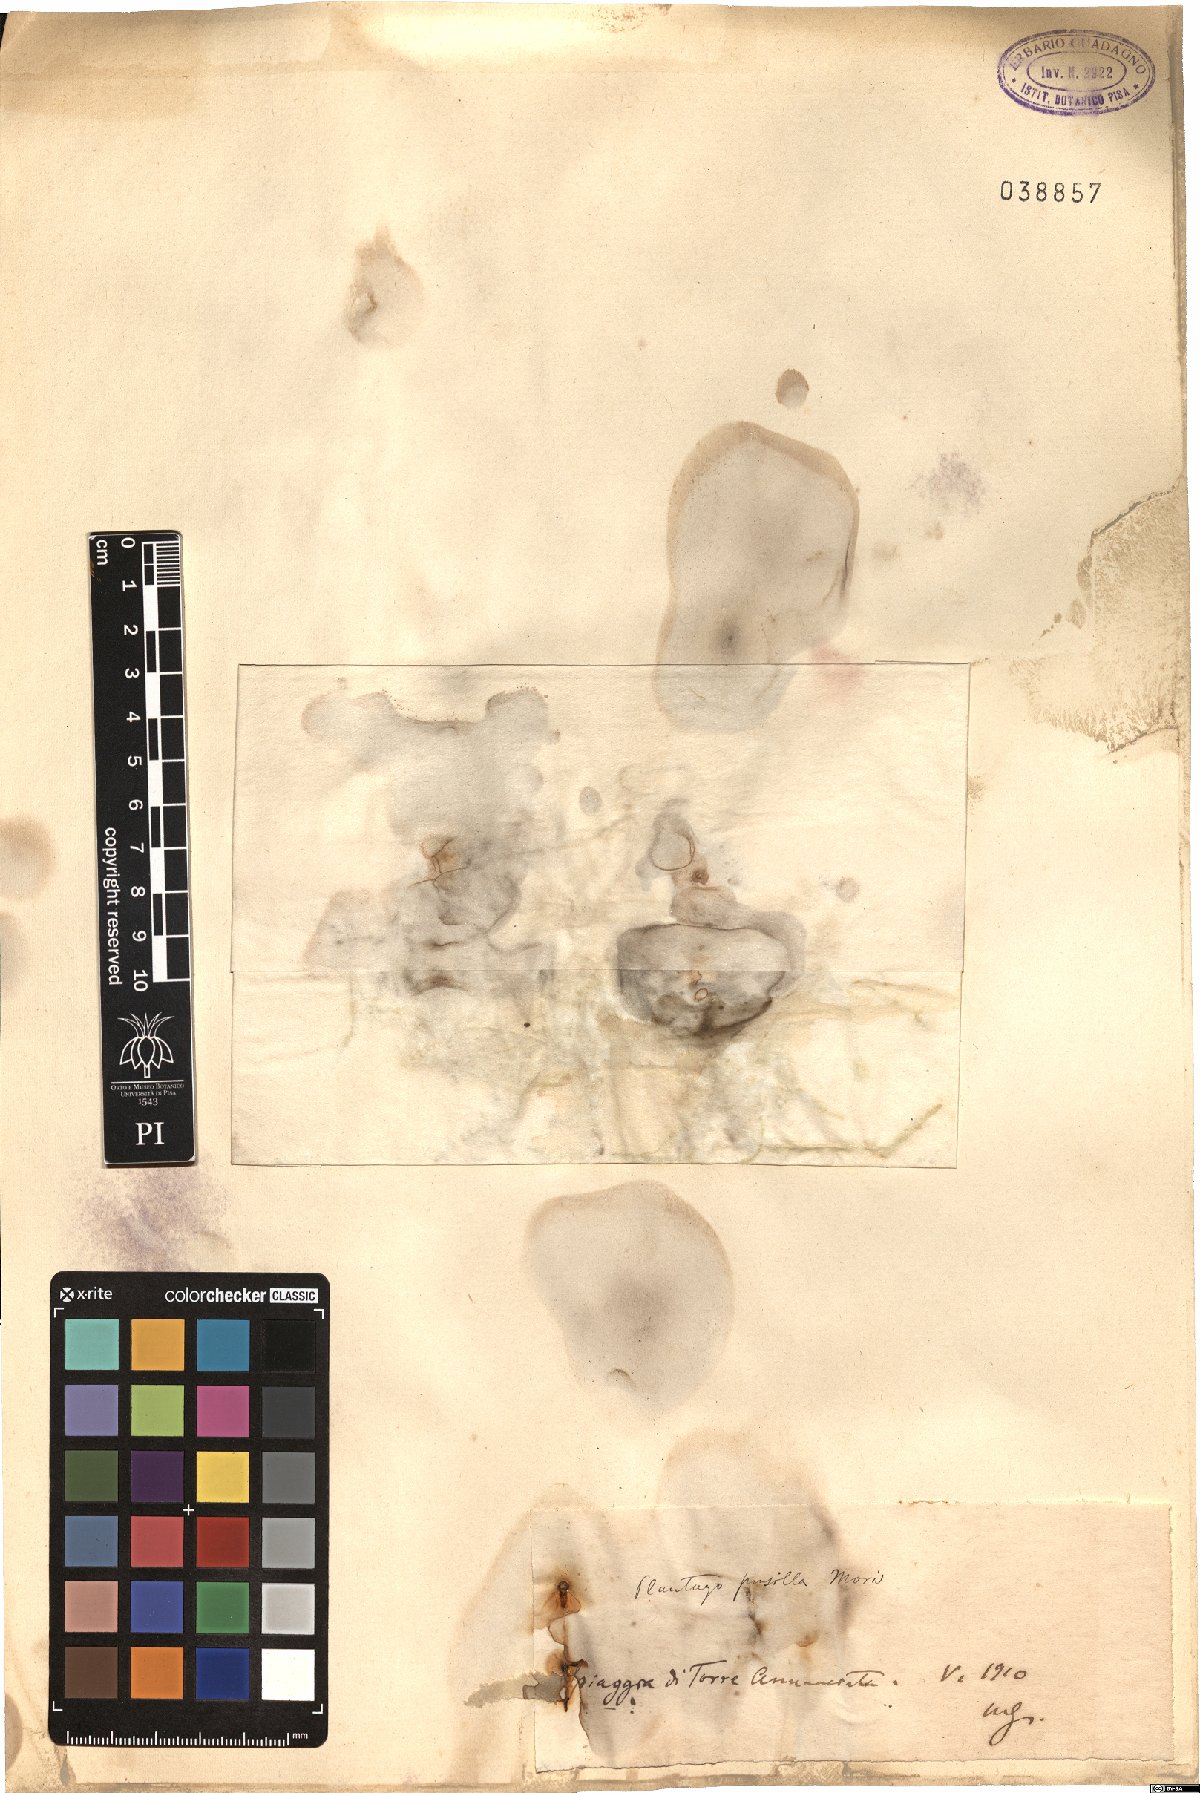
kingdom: Plantae
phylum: Tracheophyta
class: Magnoliopsida
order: Lamiales
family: Plantaginaceae
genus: Plantago
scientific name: Plantago tenuiflora
